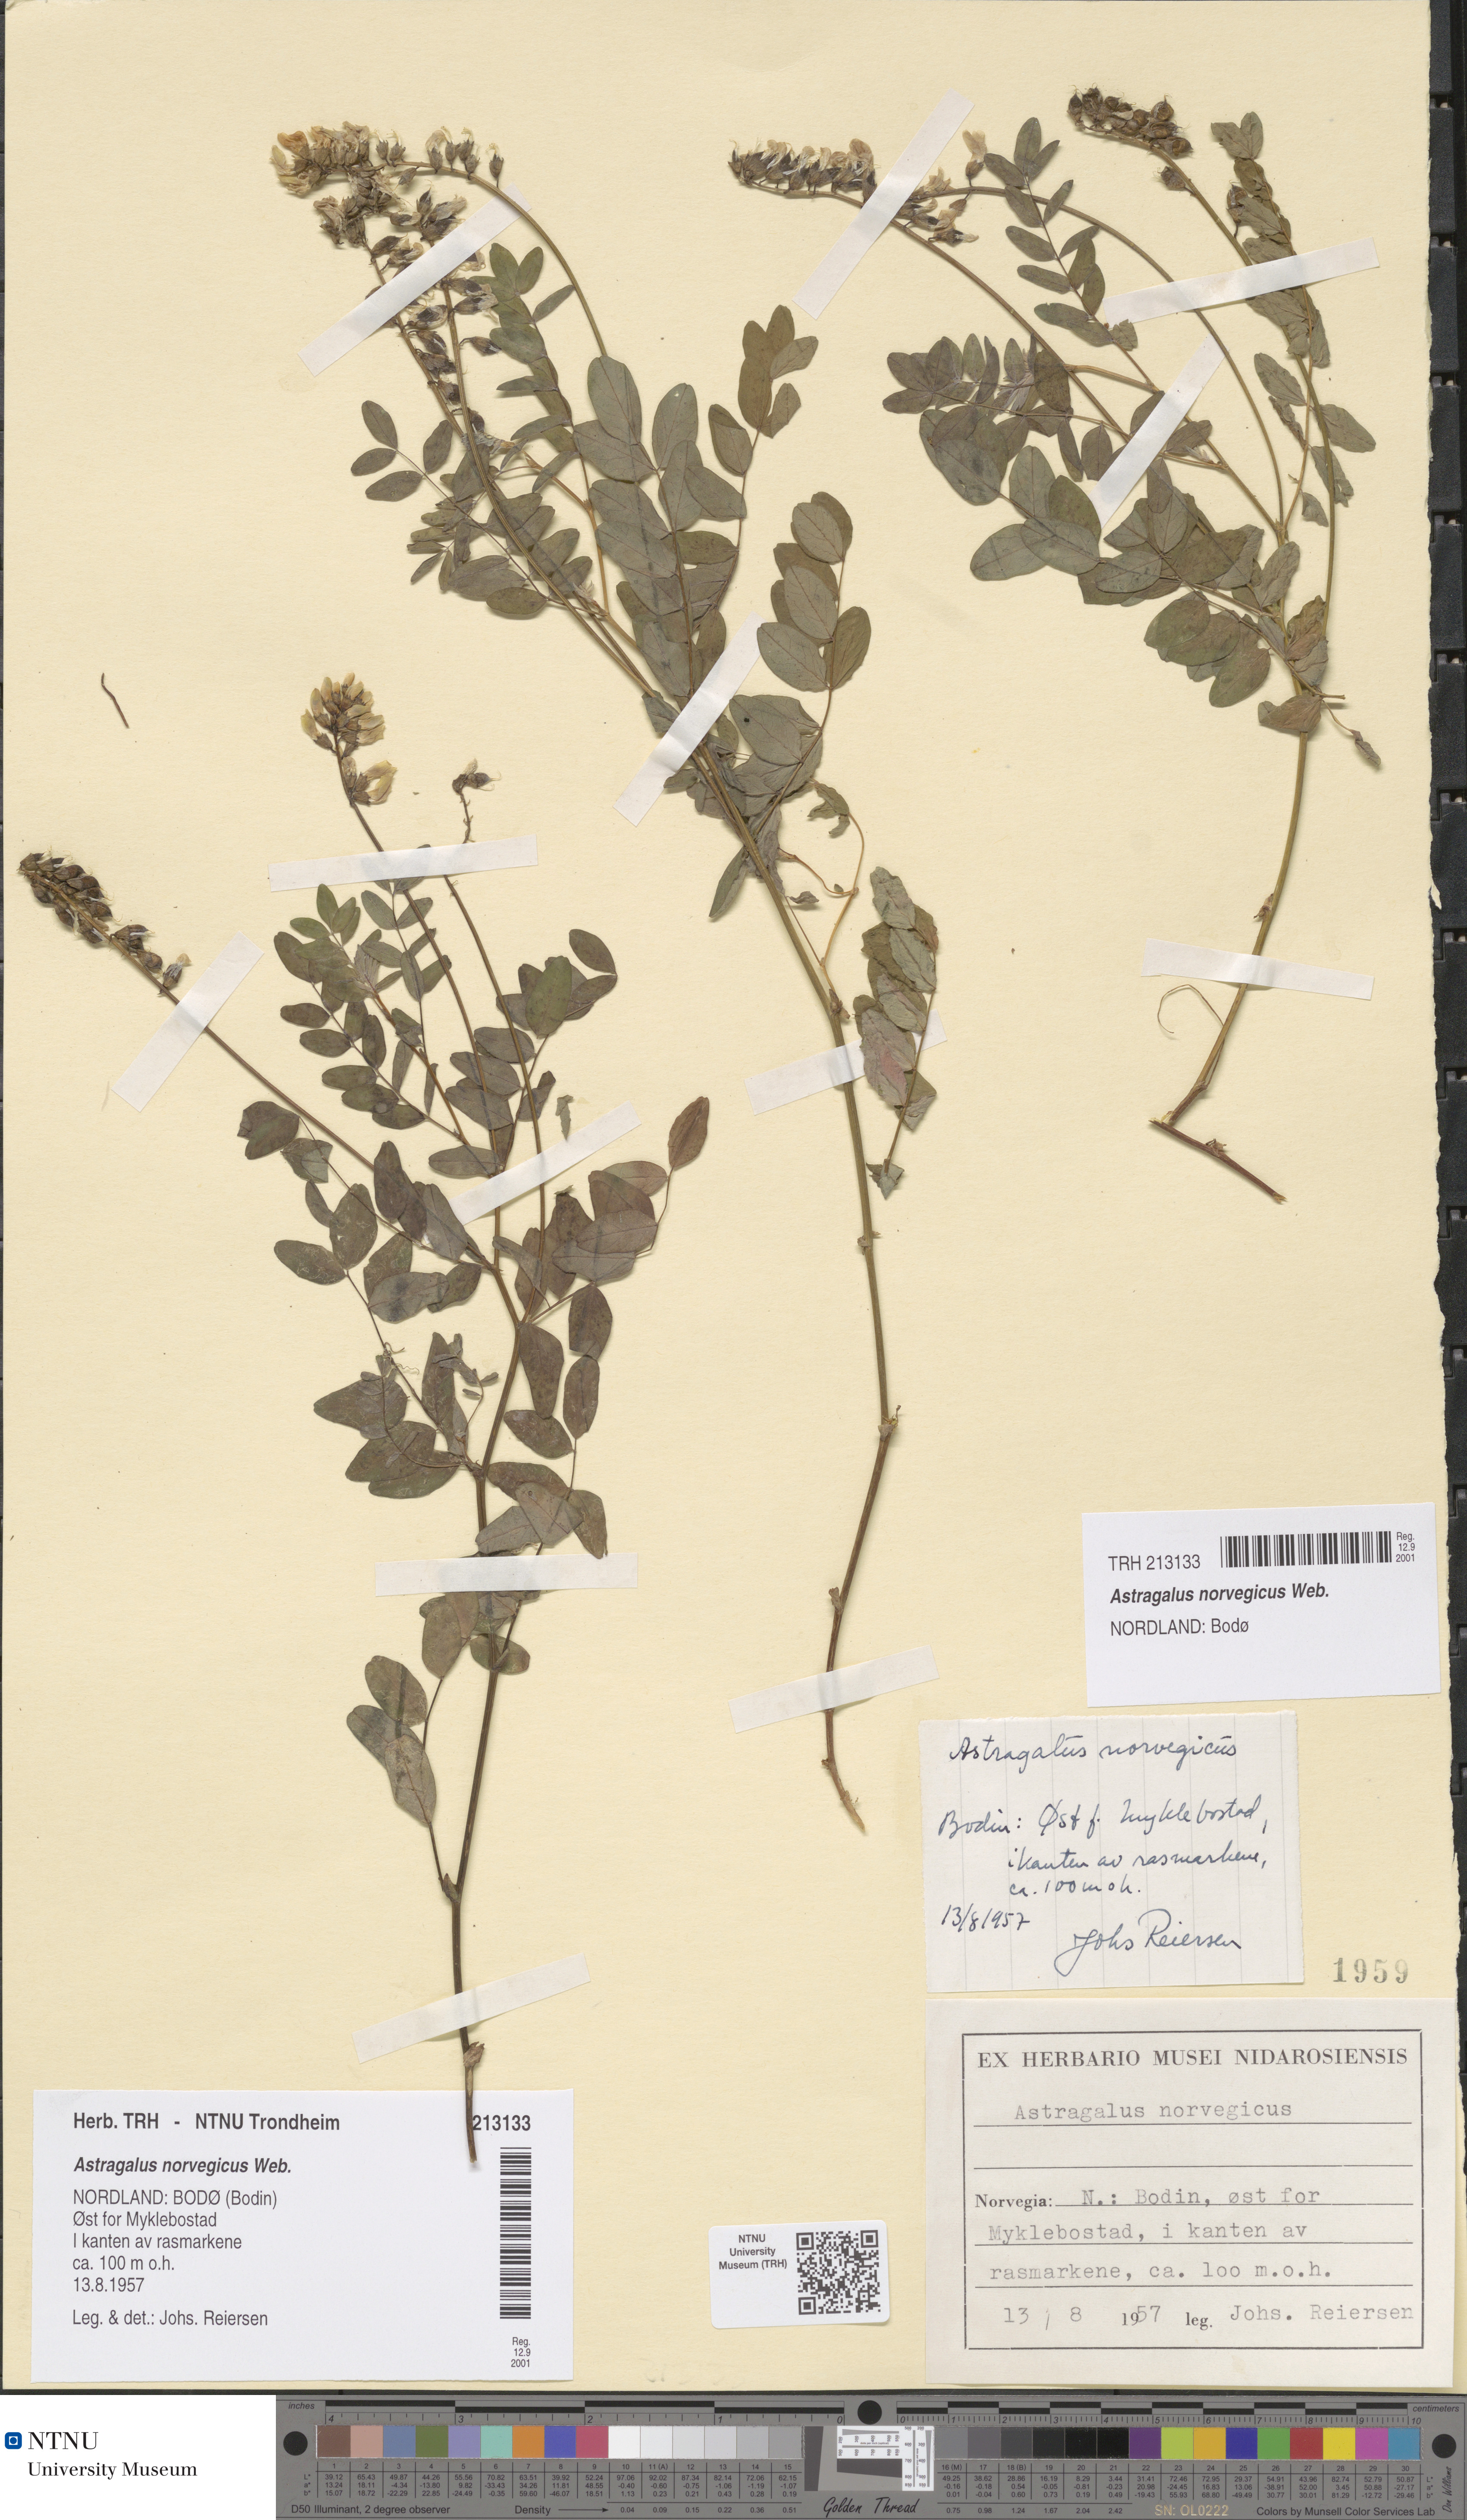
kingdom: Plantae
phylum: Tracheophyta
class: Magnoliopsida
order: Fabales
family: Fabaceae
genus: Astragalus
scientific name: Astragalus norvegicus
